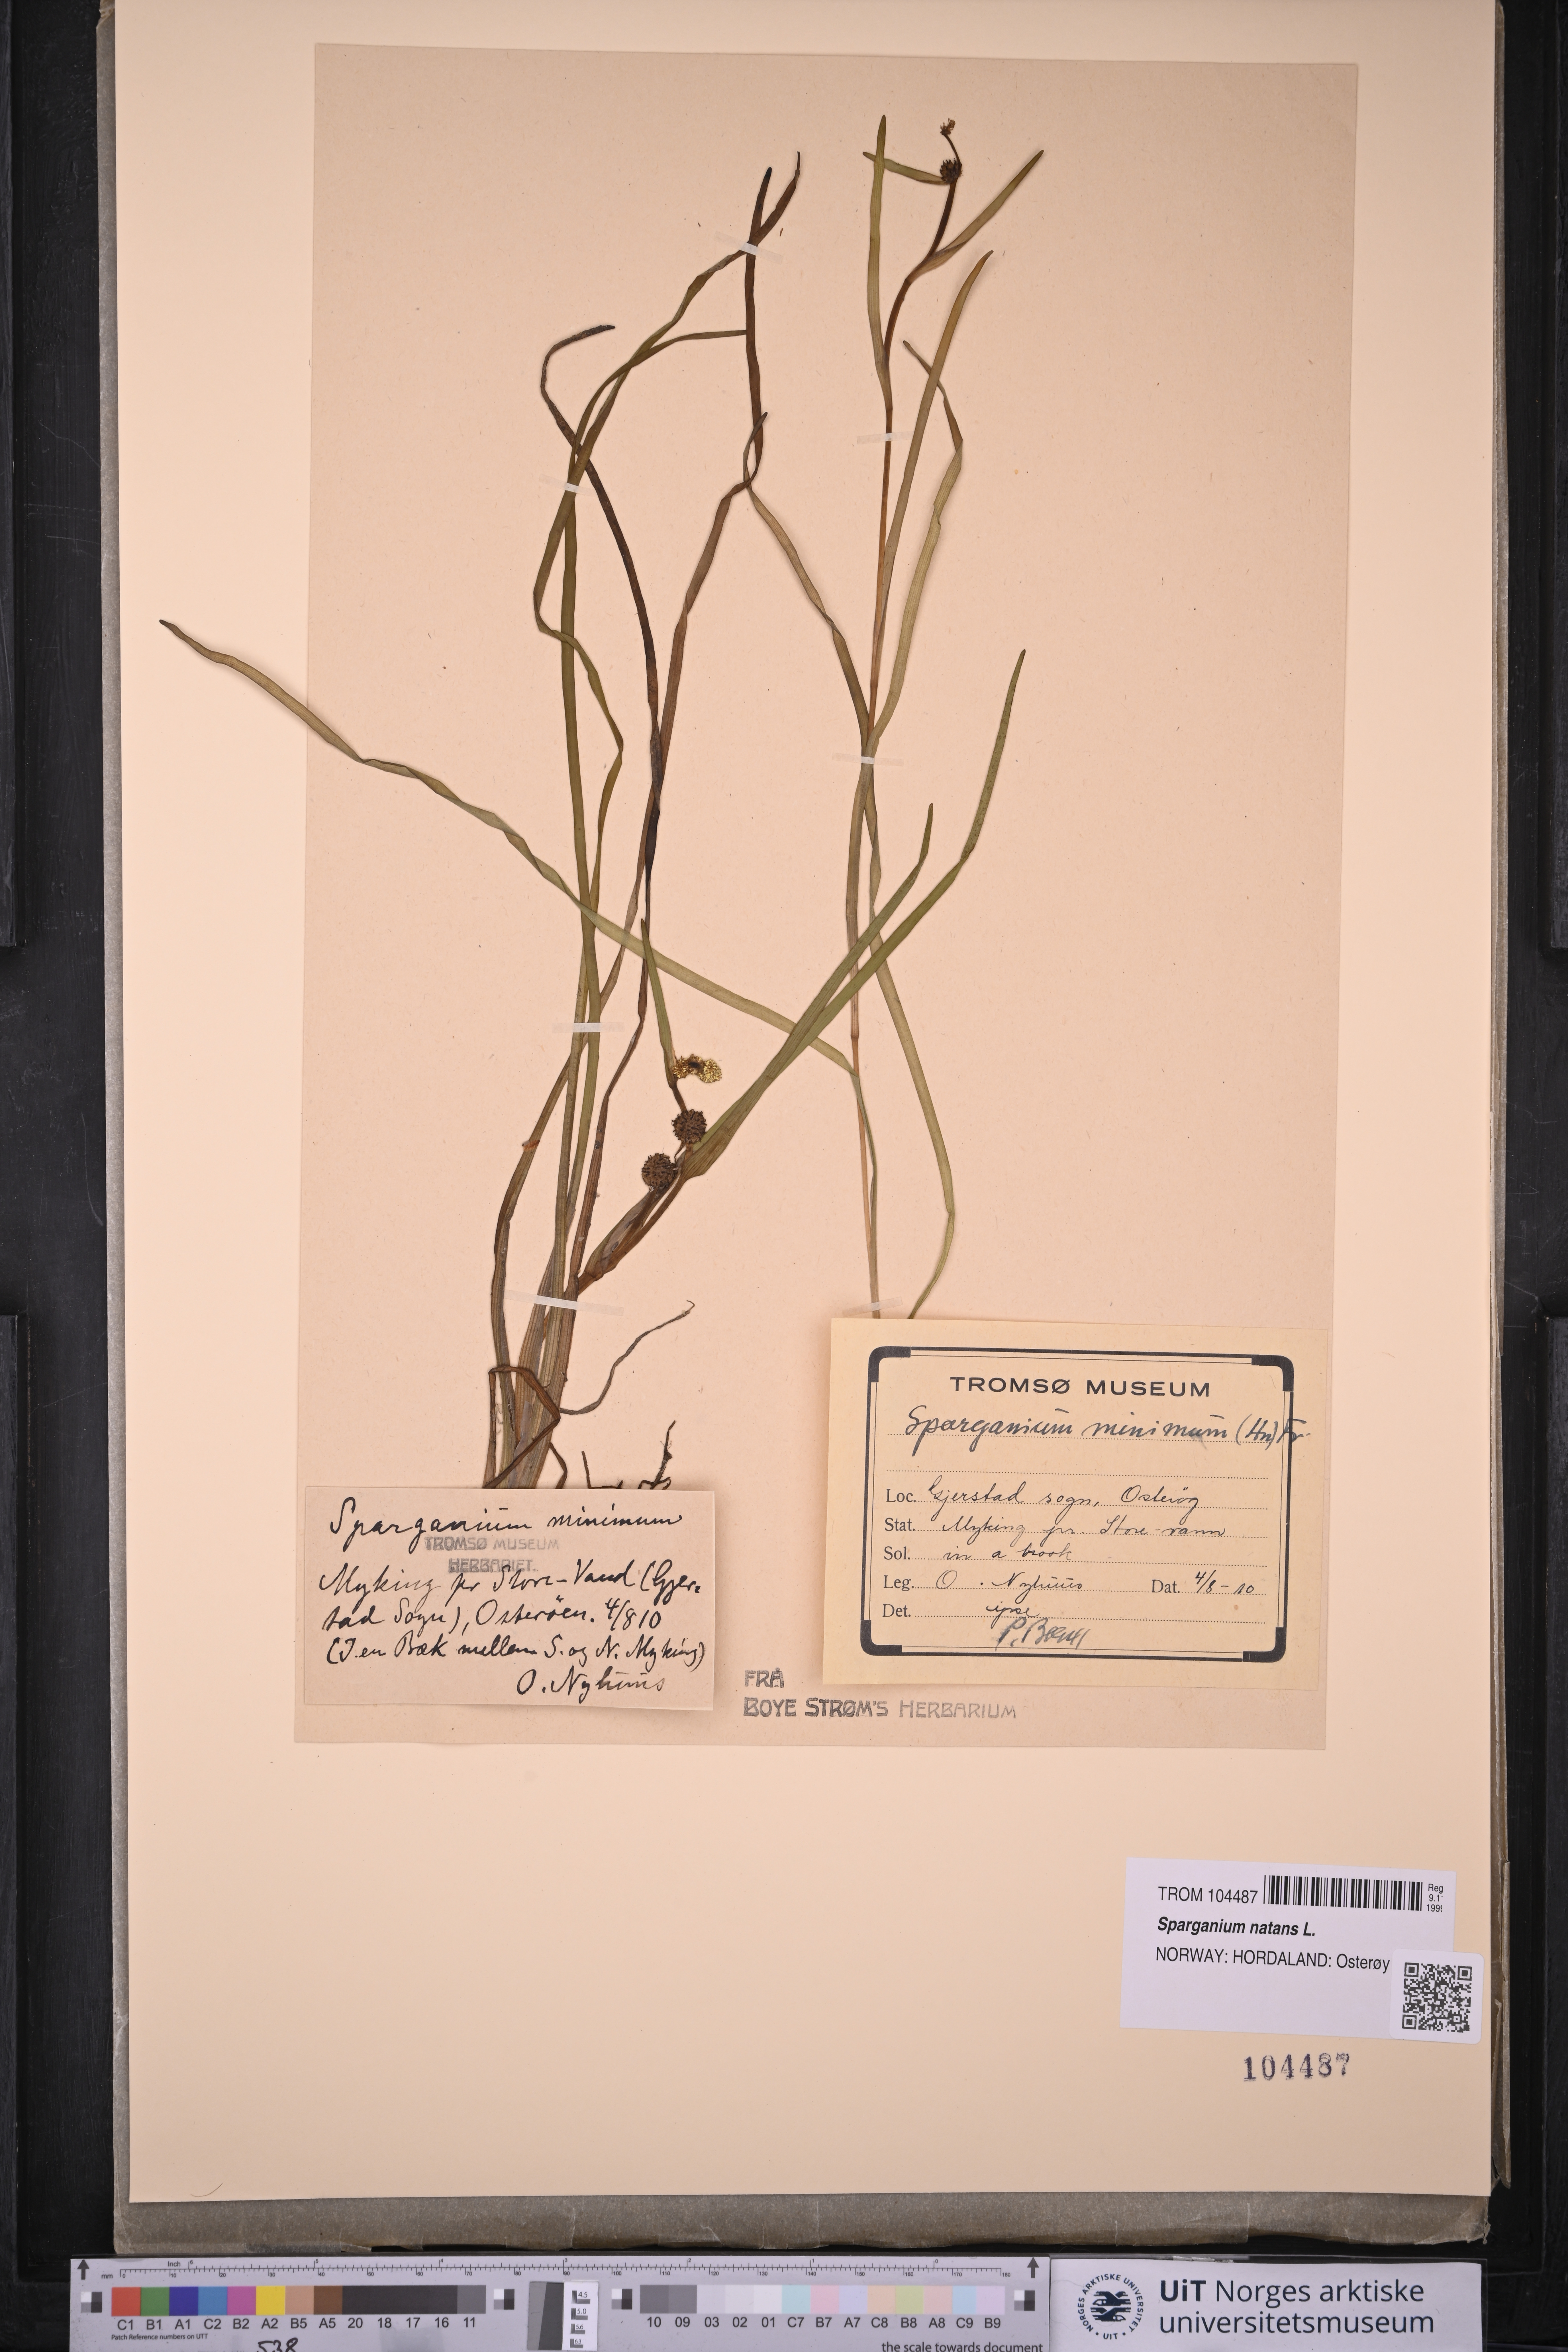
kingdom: Plantae
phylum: Tracheophyta
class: Liliopsida
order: Poales
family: Typhaceae
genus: Sparganium
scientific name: Sparganium natans
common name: Least bur-reed
